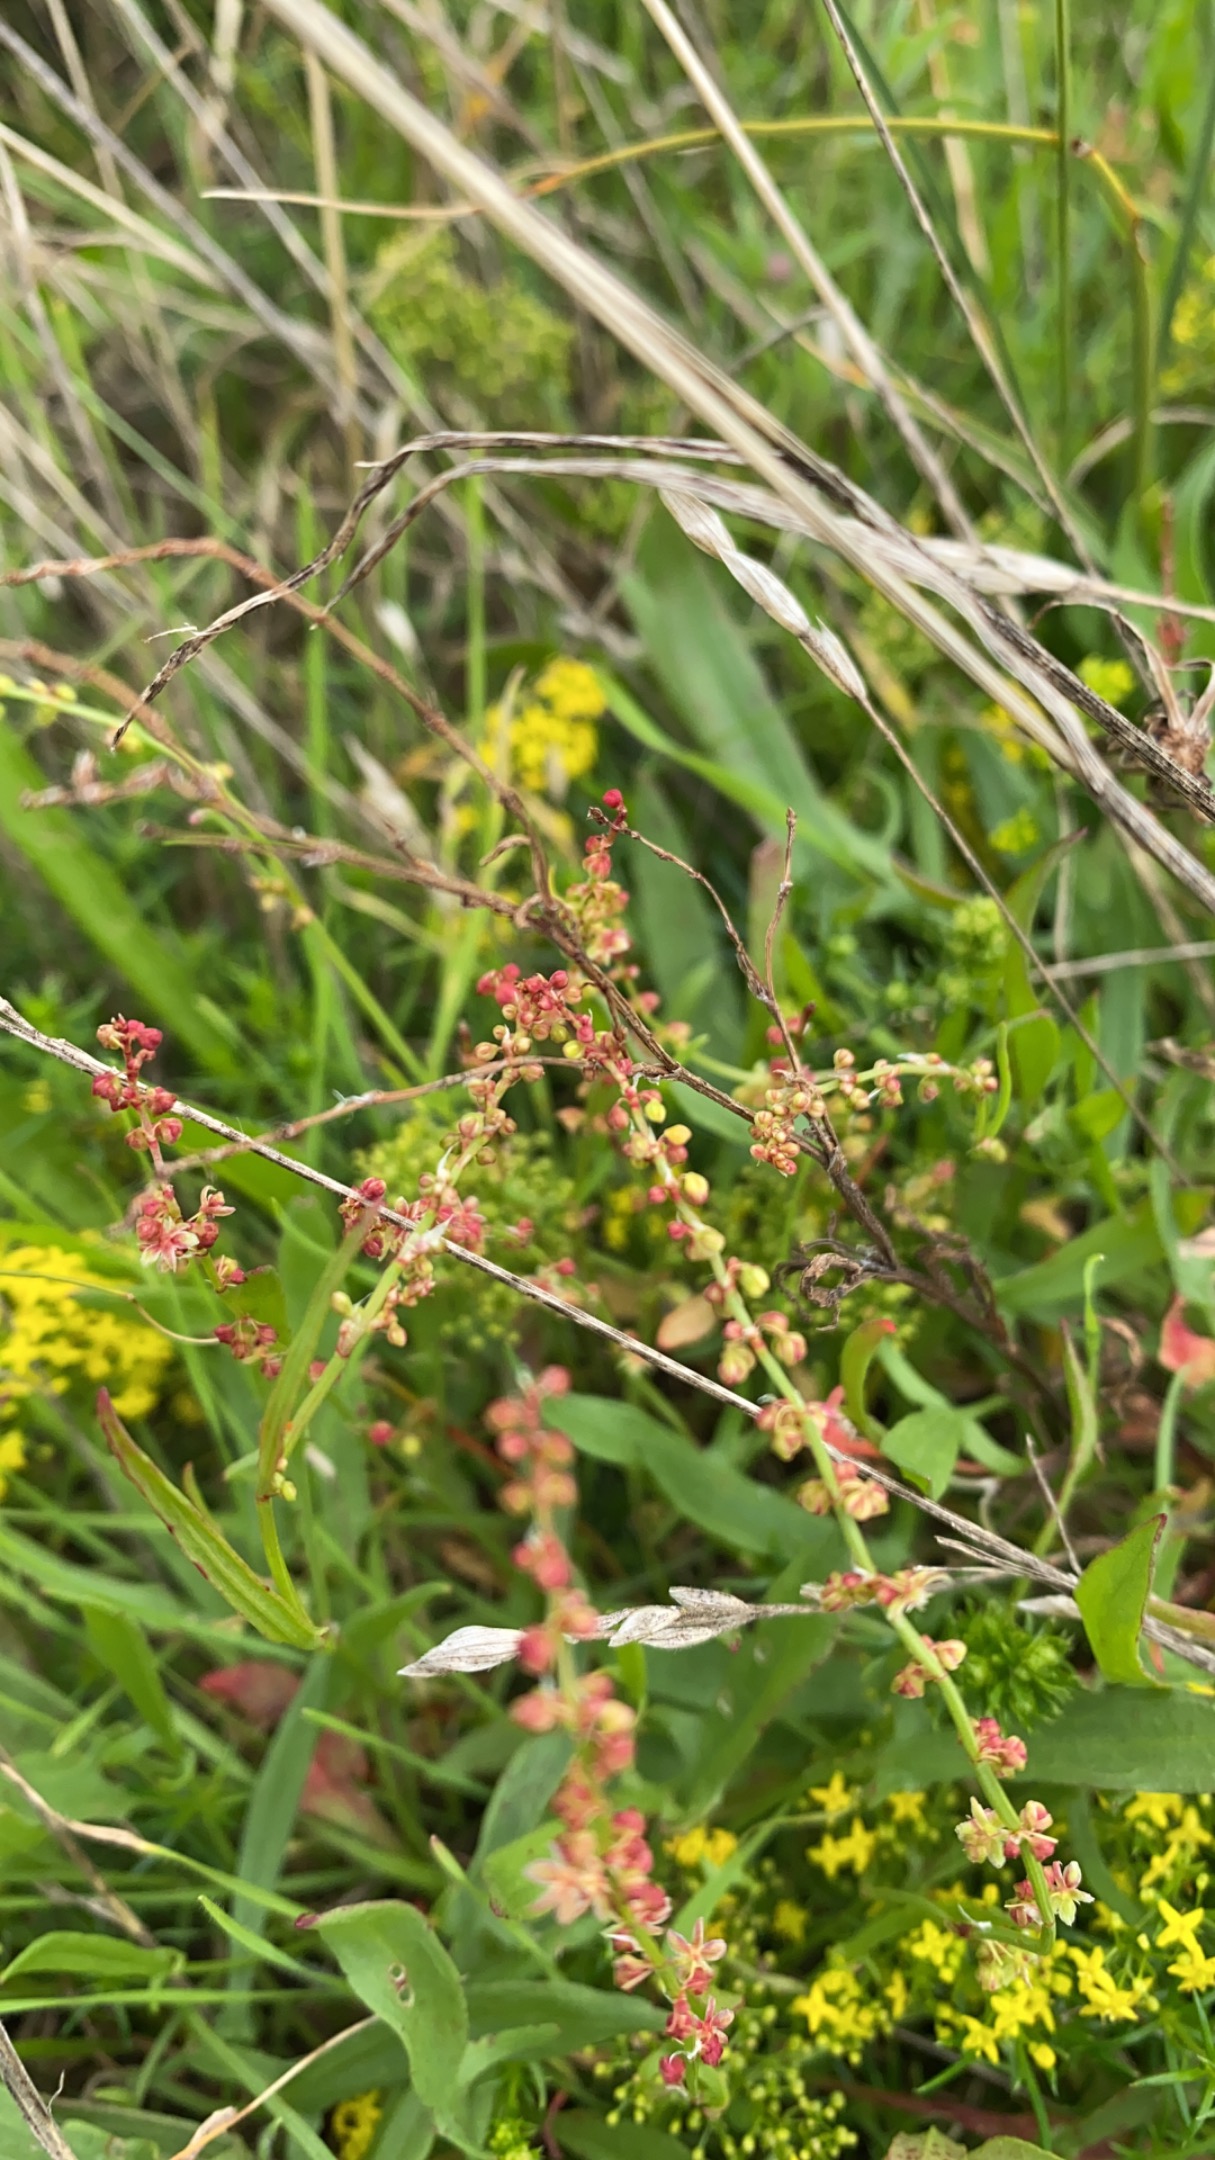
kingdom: Plantae
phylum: Tracheophyta
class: Magnoliopsida
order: Caryophyllales
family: Polygonaceae
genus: Rumex
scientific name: Rumex acetosella
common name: Rødknæ
